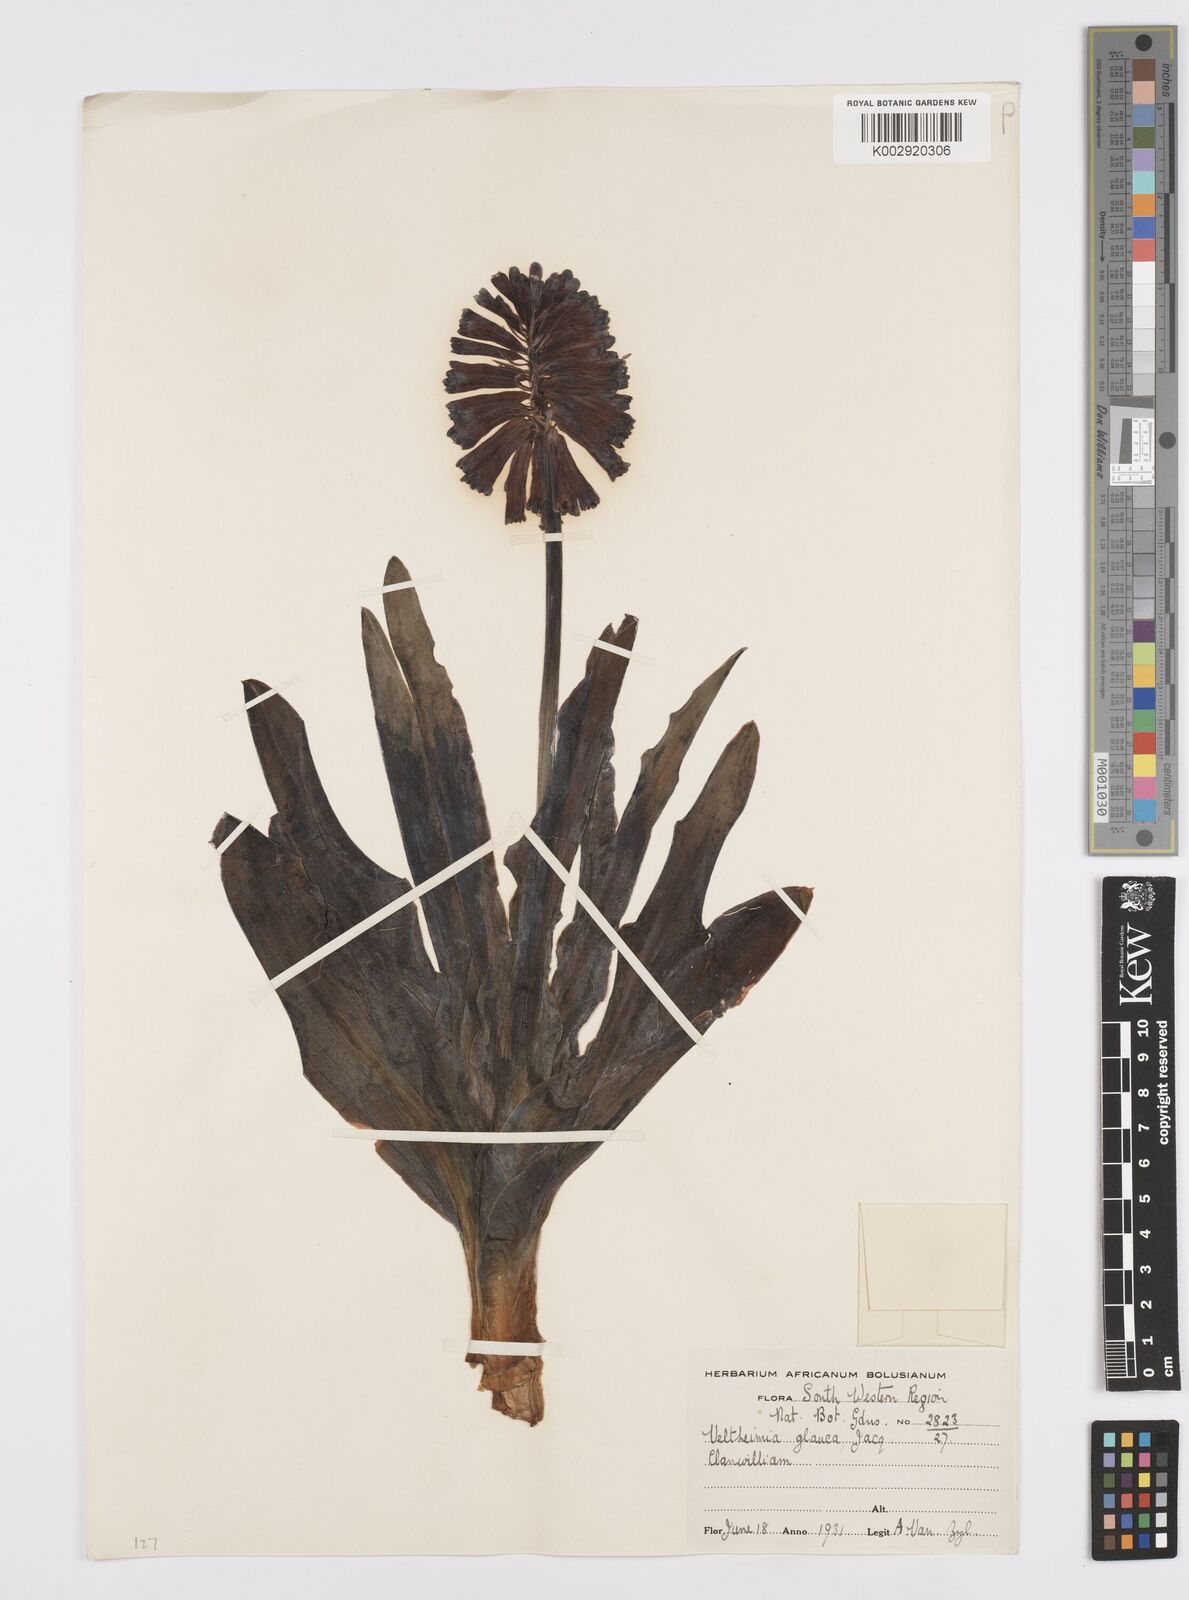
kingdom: Plantae
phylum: Tracheophyta
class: Liliopsida
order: Asparagales
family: Asparagaceae
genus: Veltheimia
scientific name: Veltheimia capensis
